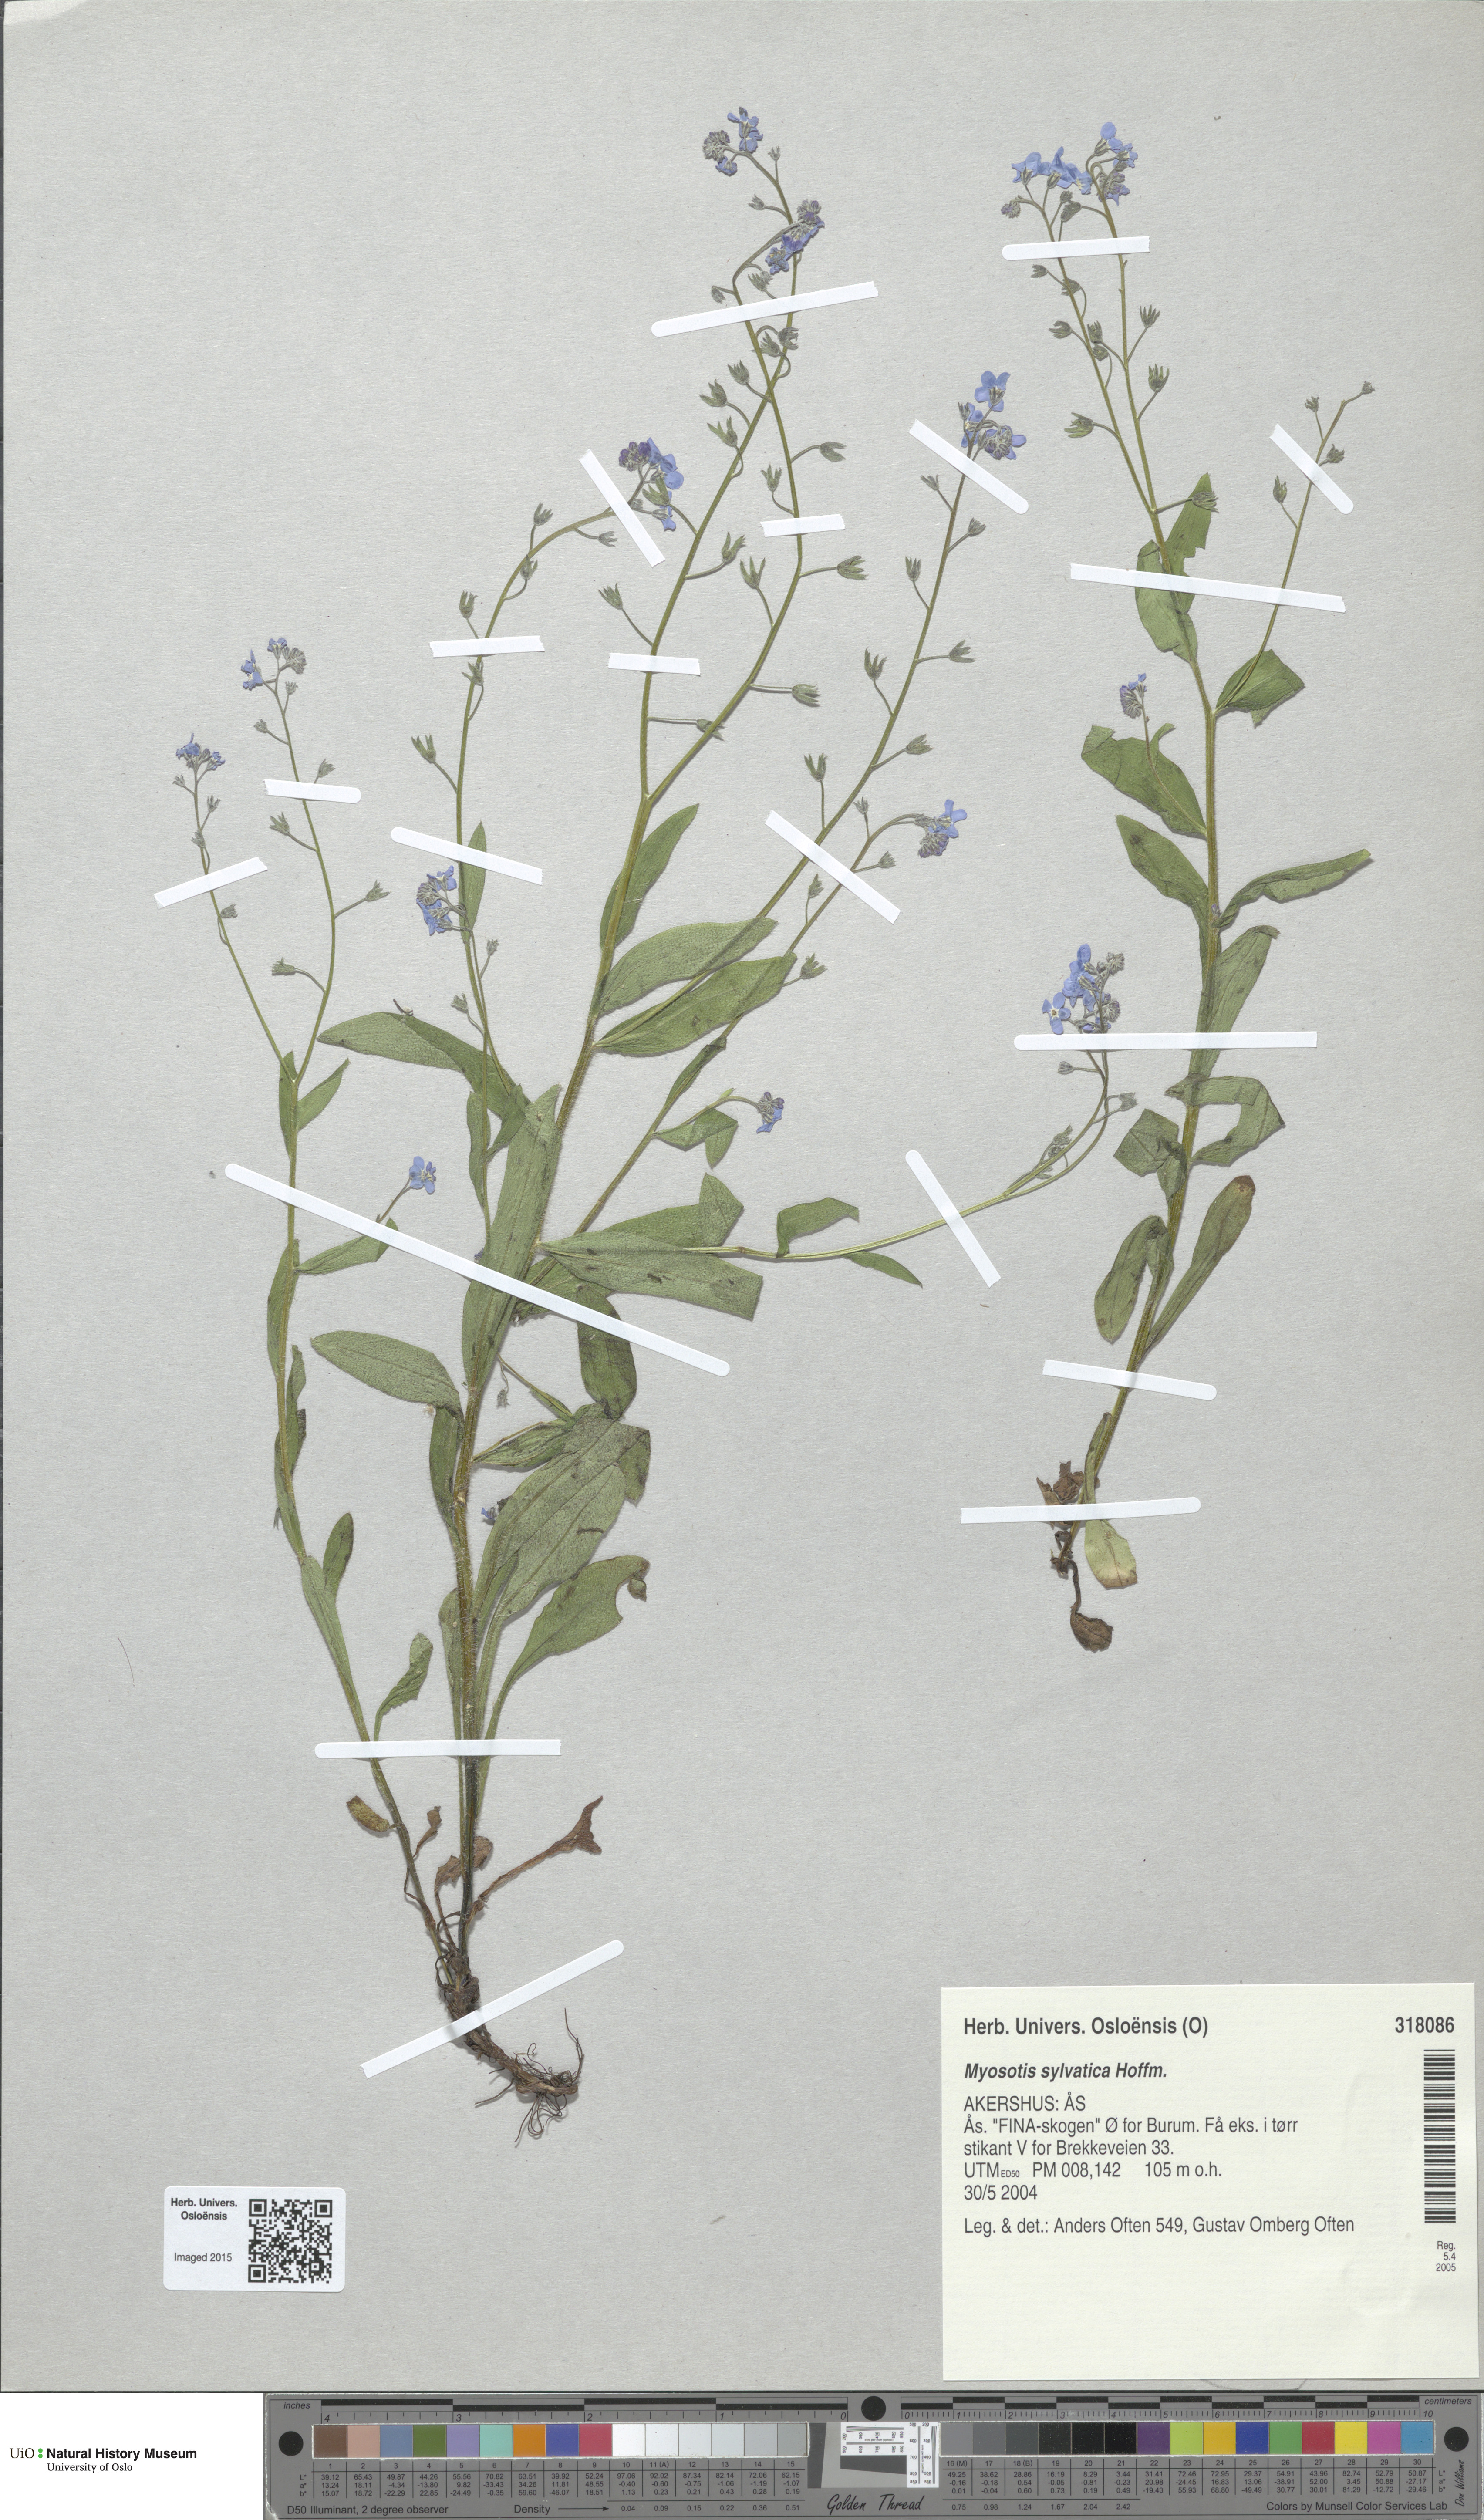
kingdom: Plantae
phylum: Tracheophyta
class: Magnoliopsida
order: Boraginales
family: Boraginaceae
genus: Myosotis
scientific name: Myosotis sylvatica
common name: Wood forget-me-not
